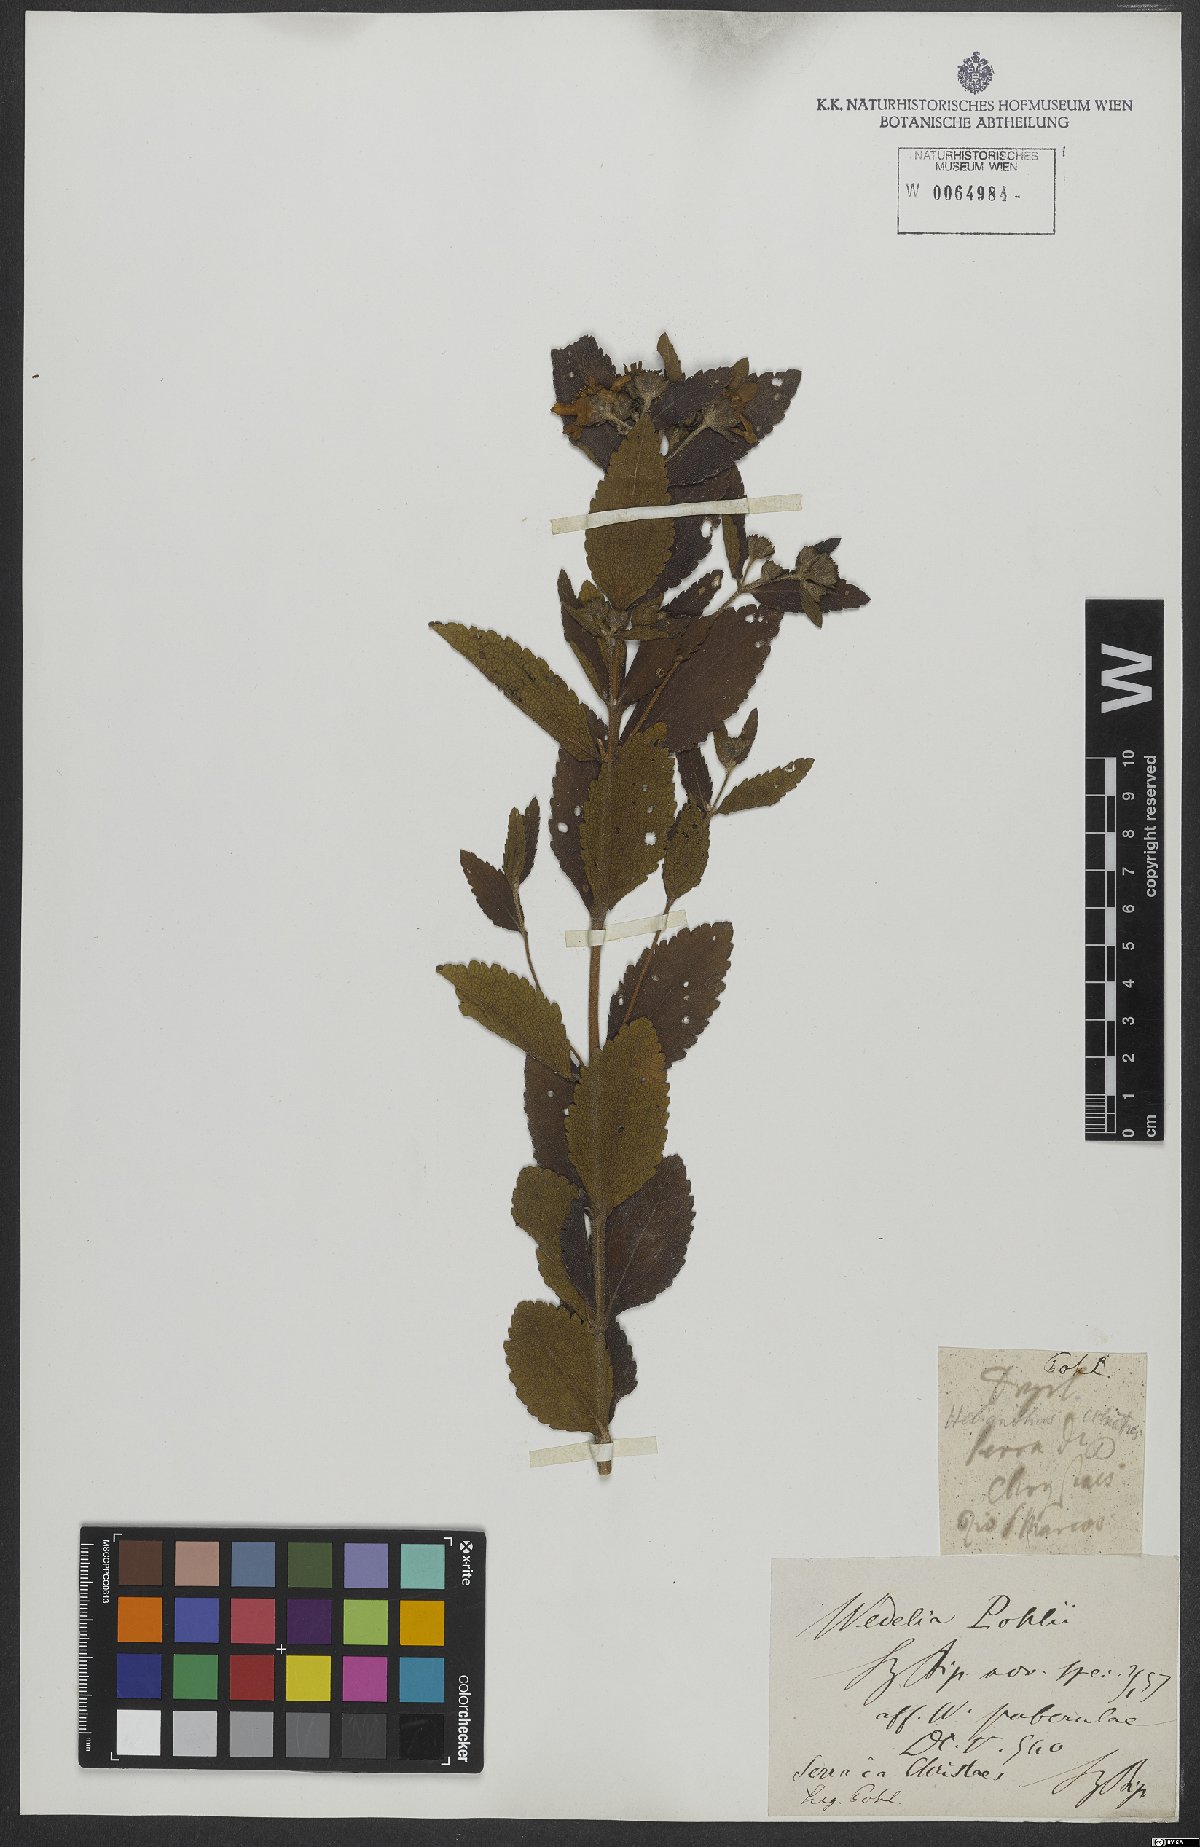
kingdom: Plantae
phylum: Tracheophyta
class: Magnoliopsida
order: Asterales
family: Asteraceae
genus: Wedelia
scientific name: Wedelia vauthieri
